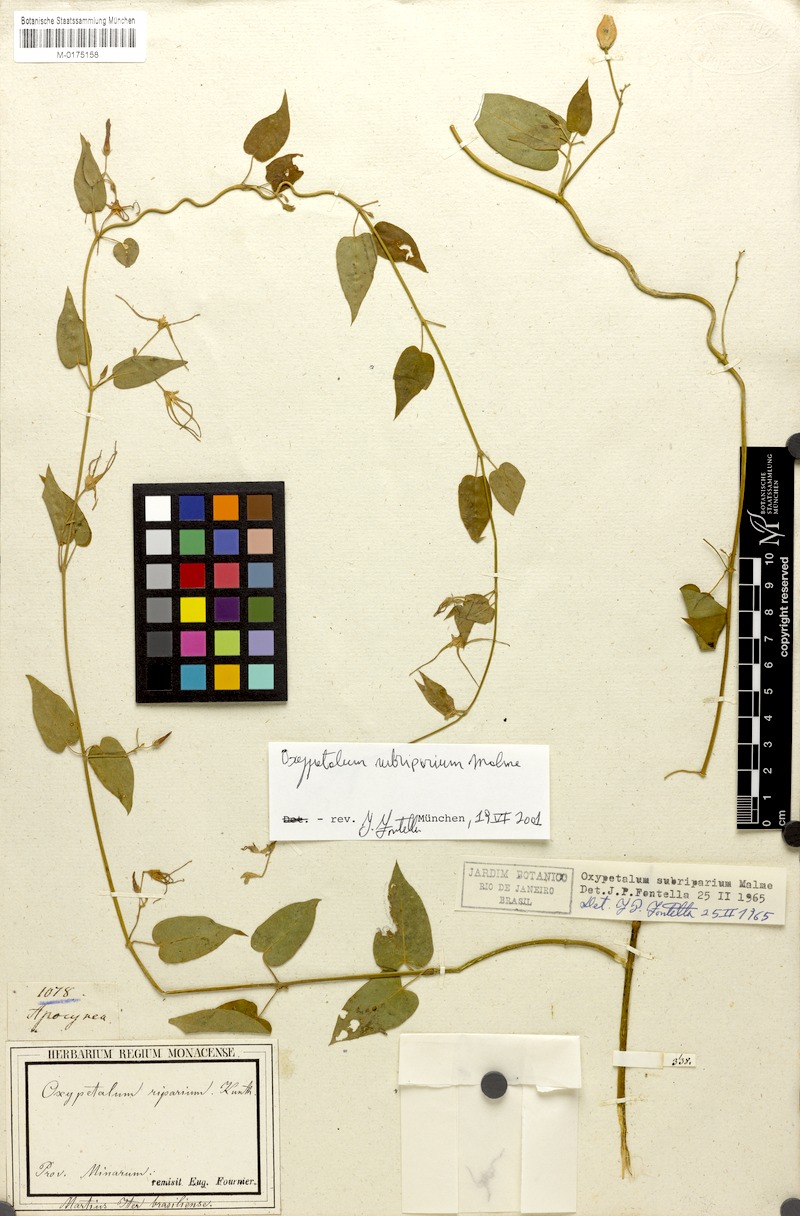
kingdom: Plantae
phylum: Tracheophyta
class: Magnoliopsida
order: Gentianales
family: Apocynaceae
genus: Oxypetalum
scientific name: Oxypetalum cordifolium
